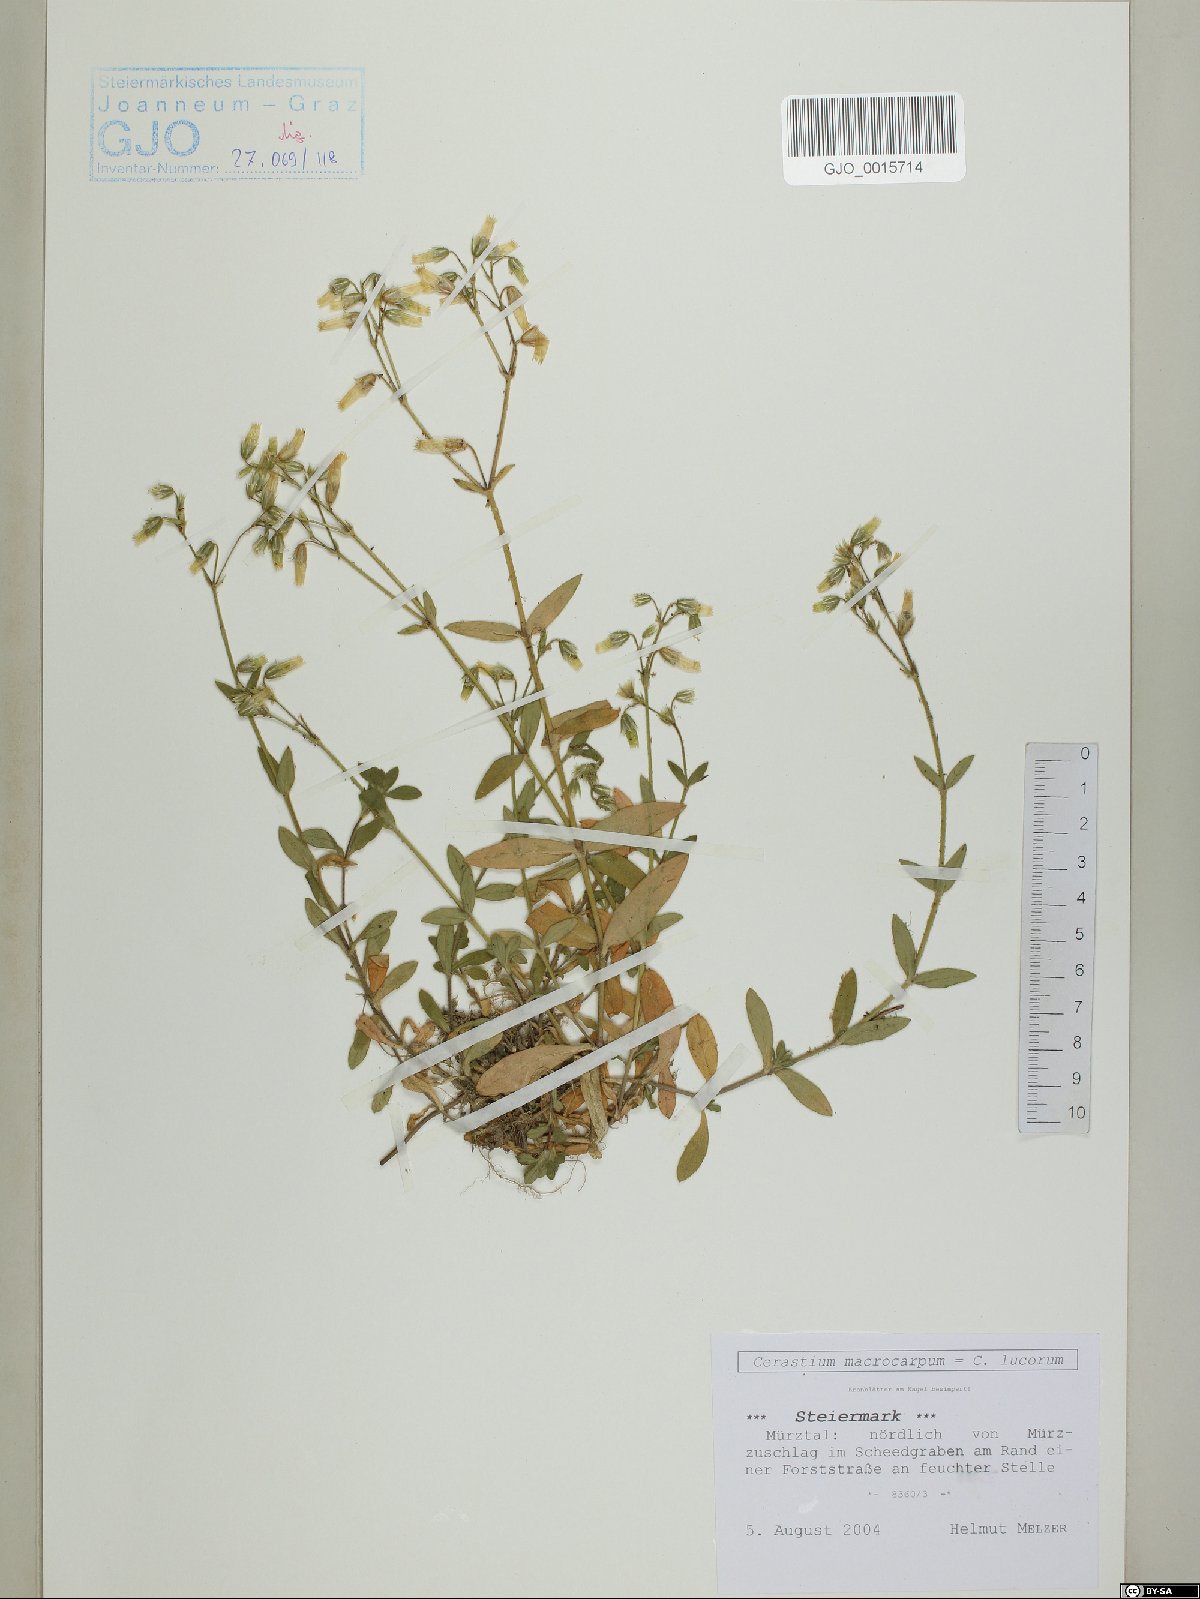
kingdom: Plantae
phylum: Tracheophyta
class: Magnoliopsida
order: Caryophyllales
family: Caryophyllaceae
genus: Cerastium
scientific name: Cerastium lucorum
